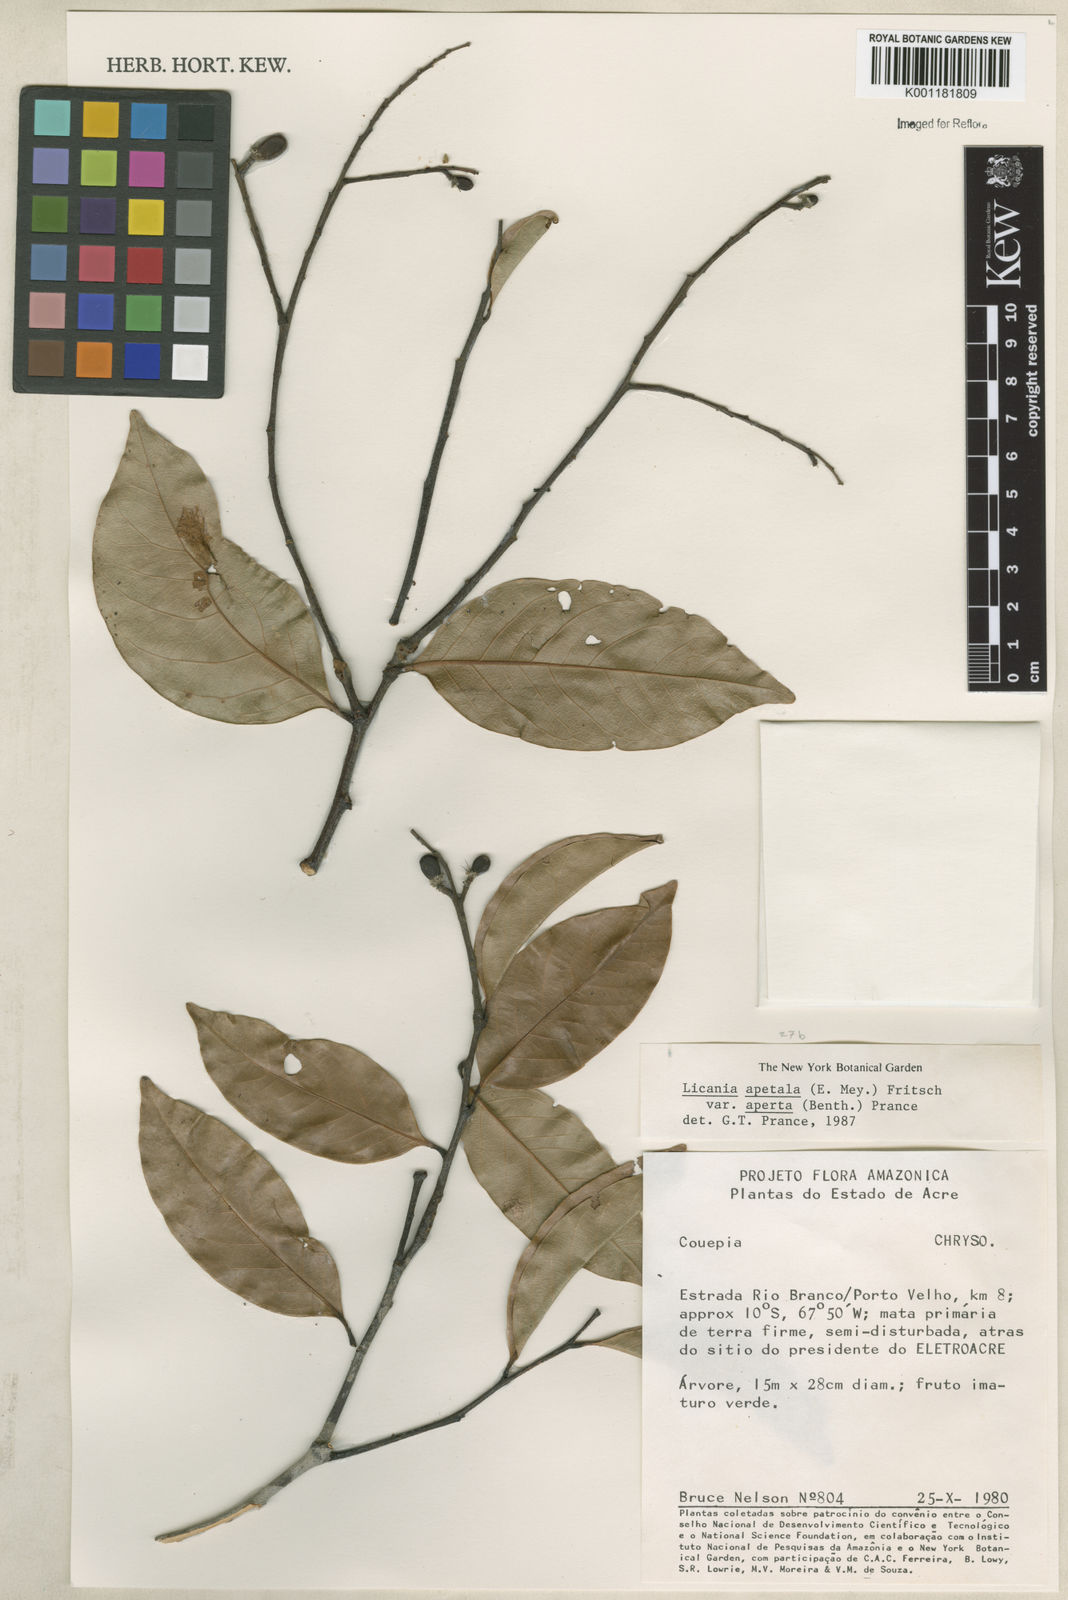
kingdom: Plantae
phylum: Tracheophyta
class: Magnoliopsida
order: Malpighiales
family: Chrysobalanaceae
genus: Leptobalanus
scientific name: Leptobalanus apetalus
